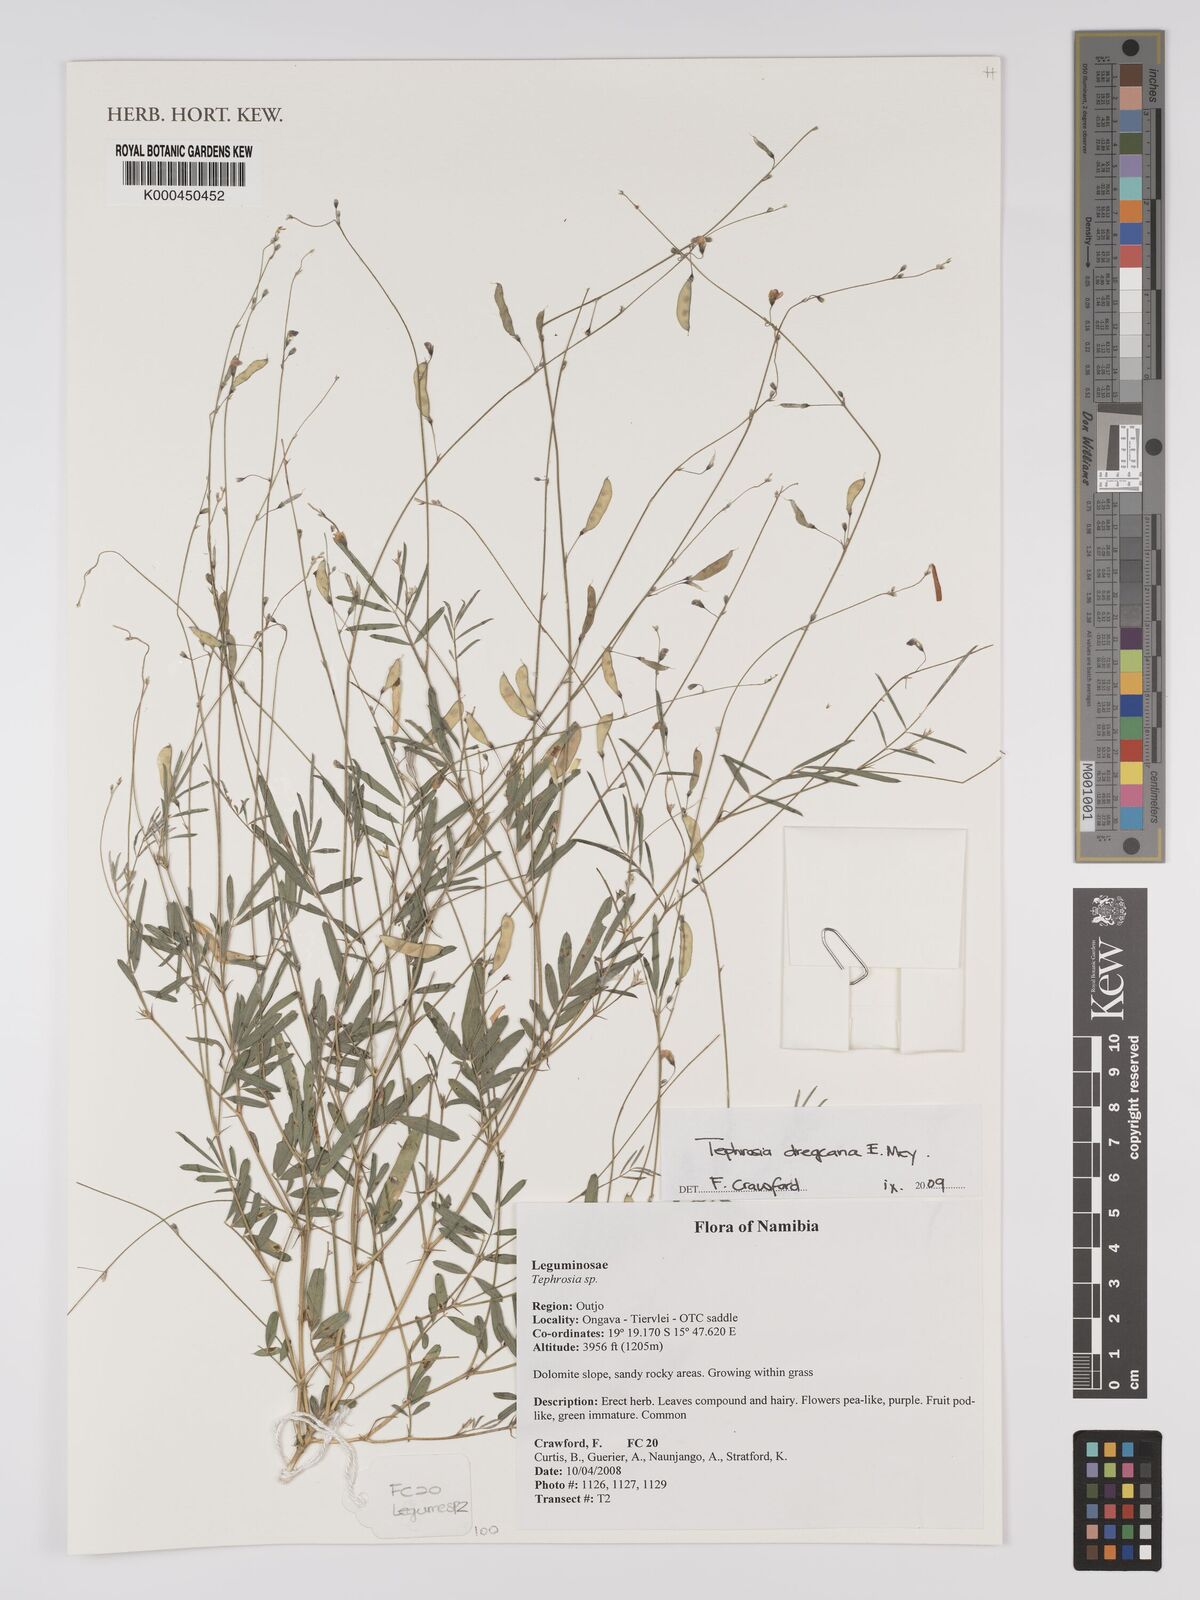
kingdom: Plantae
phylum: Tracheophyta
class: Magnoliopsida
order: Fabales
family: Fabaceae
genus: Tephrosia
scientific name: Tephrosia dregeana
